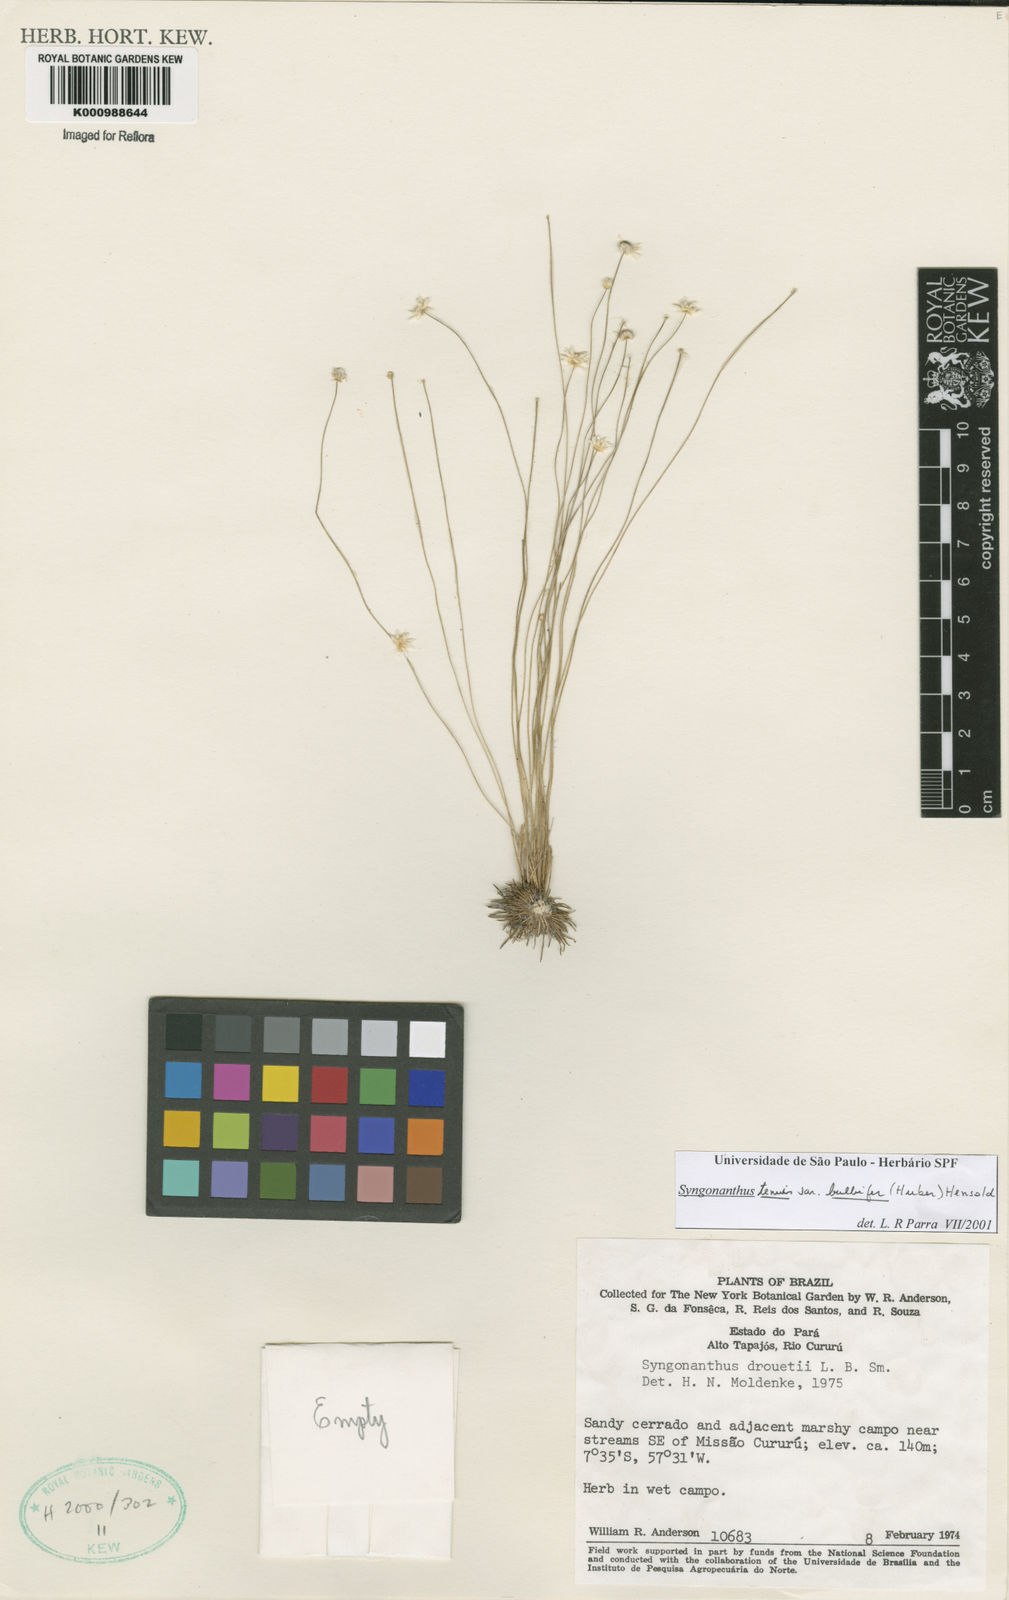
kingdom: Plantae
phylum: Tracheophyta
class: Liliopsida
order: Poales
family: Eriocaulaceae
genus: Syngonanthus
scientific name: Syngonanthus tenuis
